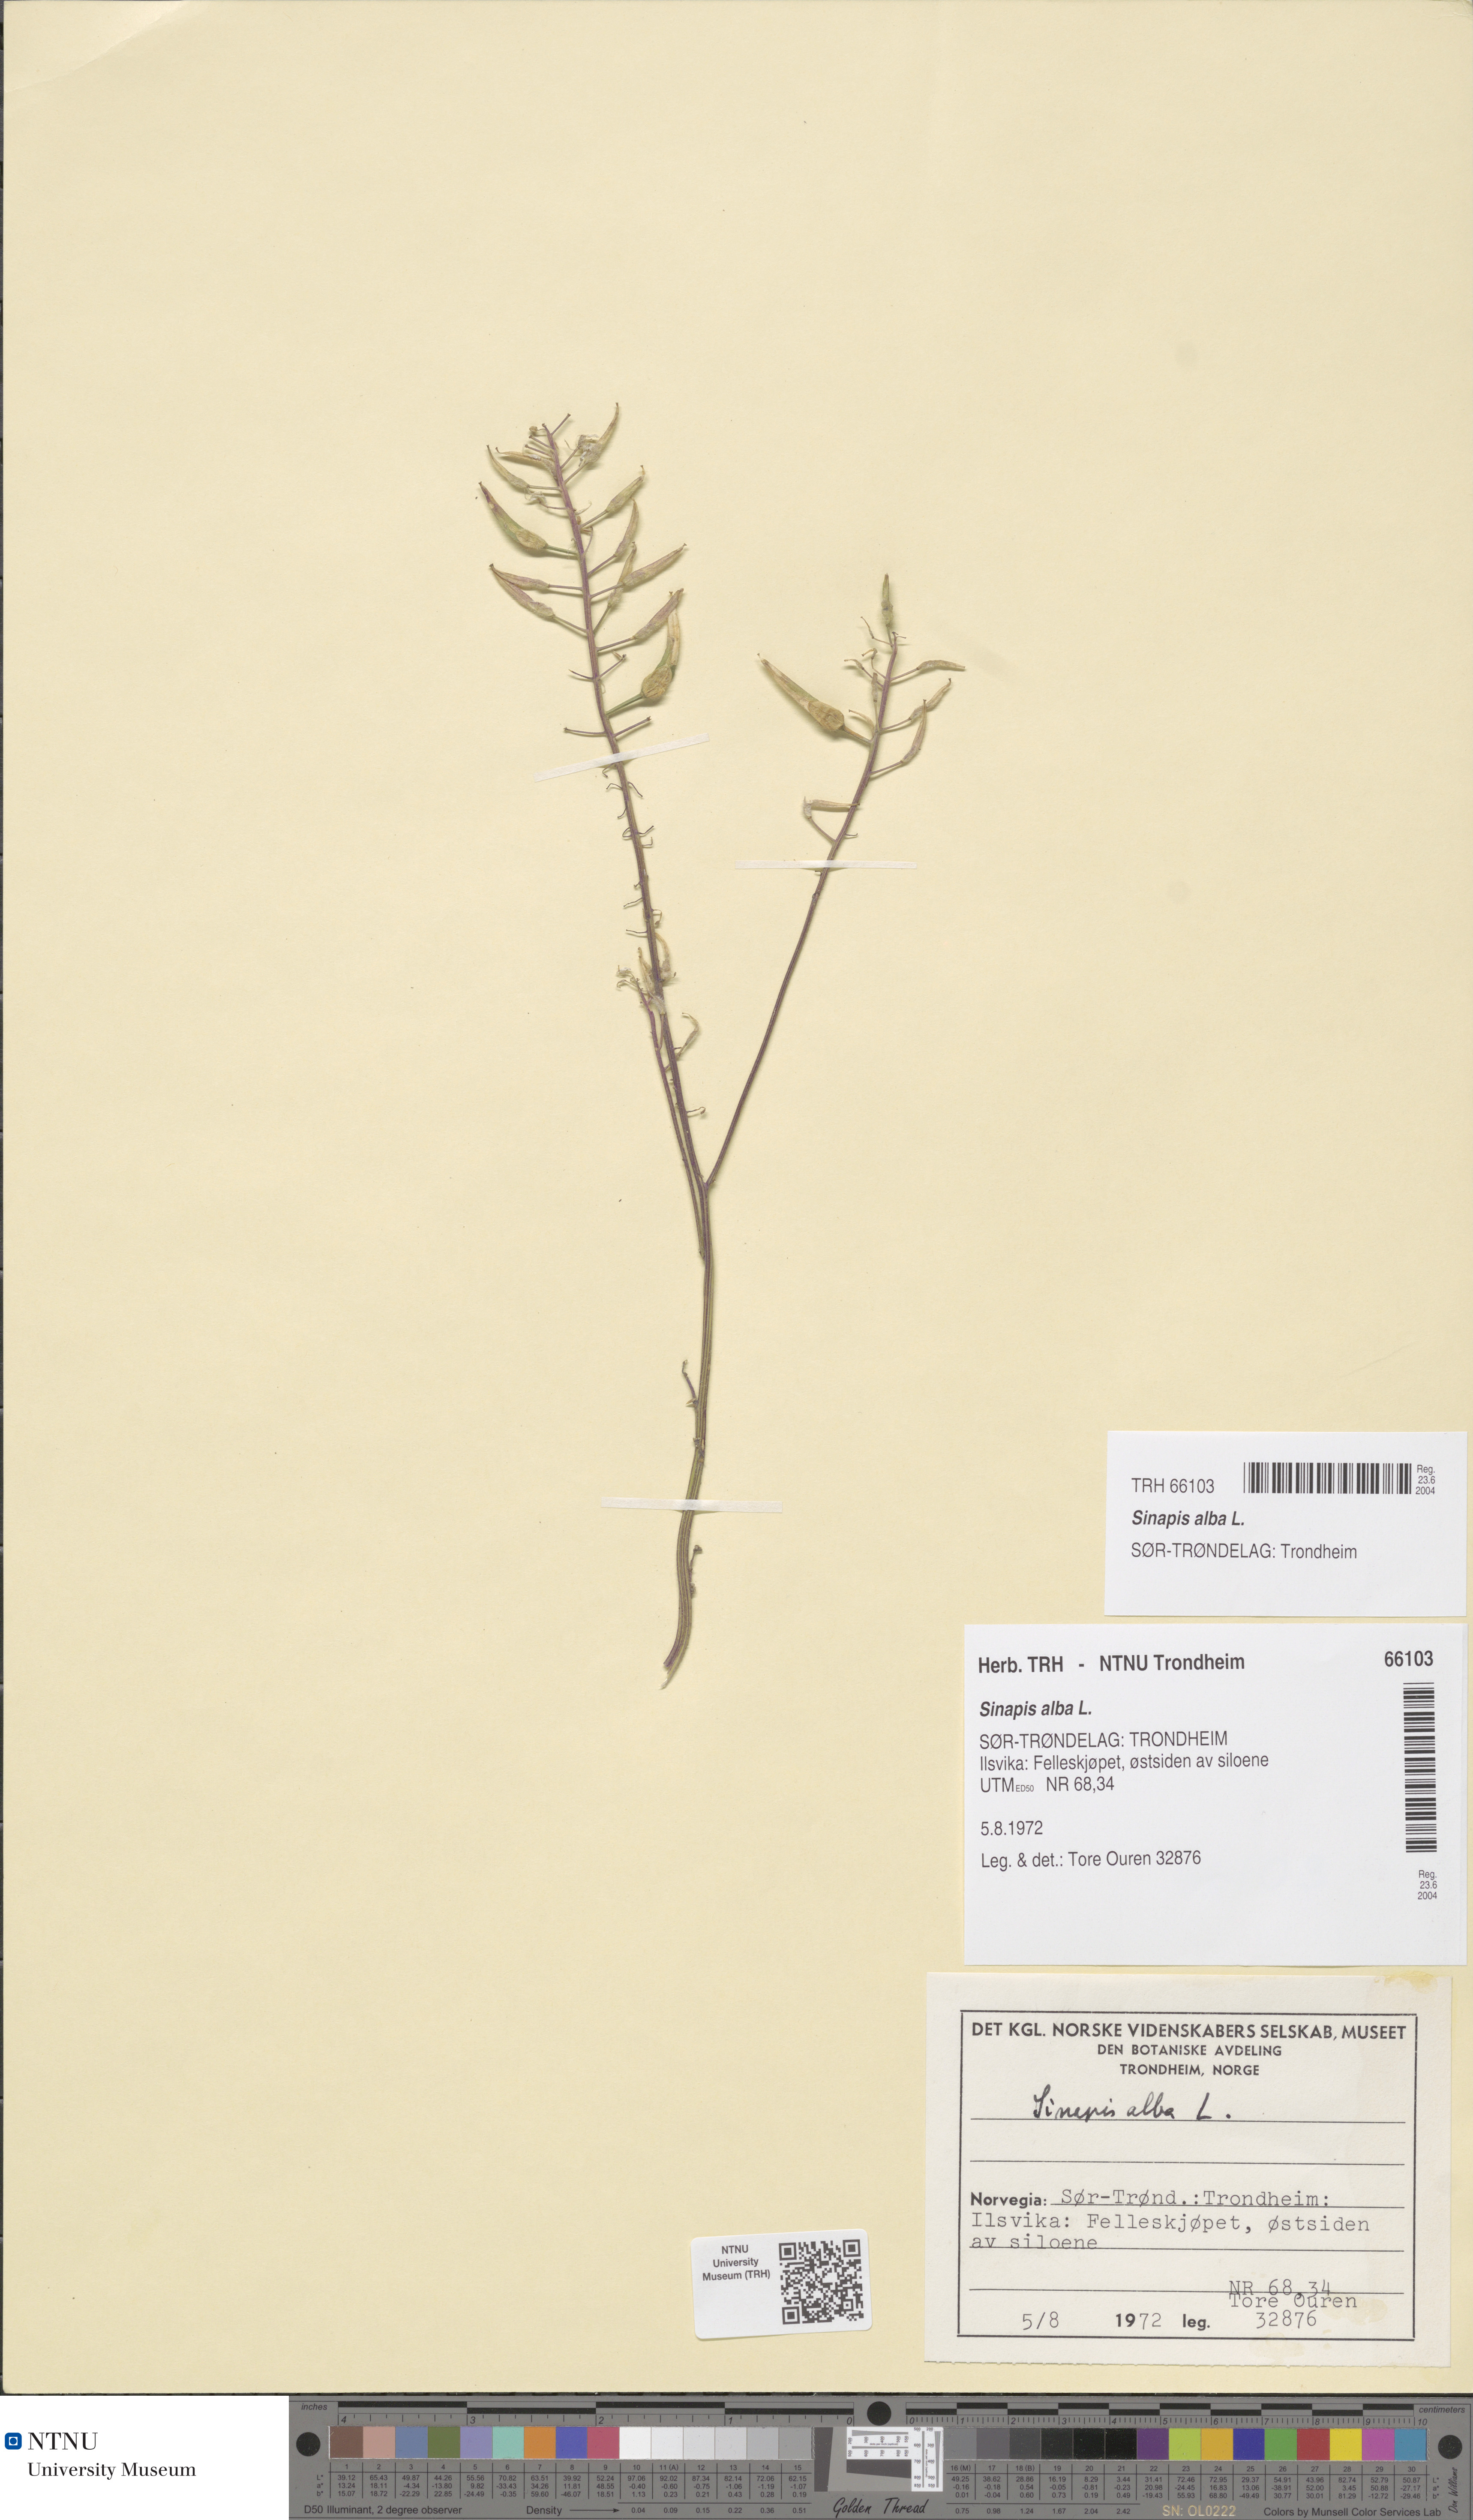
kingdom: Plantae
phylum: Tracheophyta
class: Magnoliopsida
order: Brassicales
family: Brassicaceae
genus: Sinapis
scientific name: Sinapis alba
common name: White mustard
